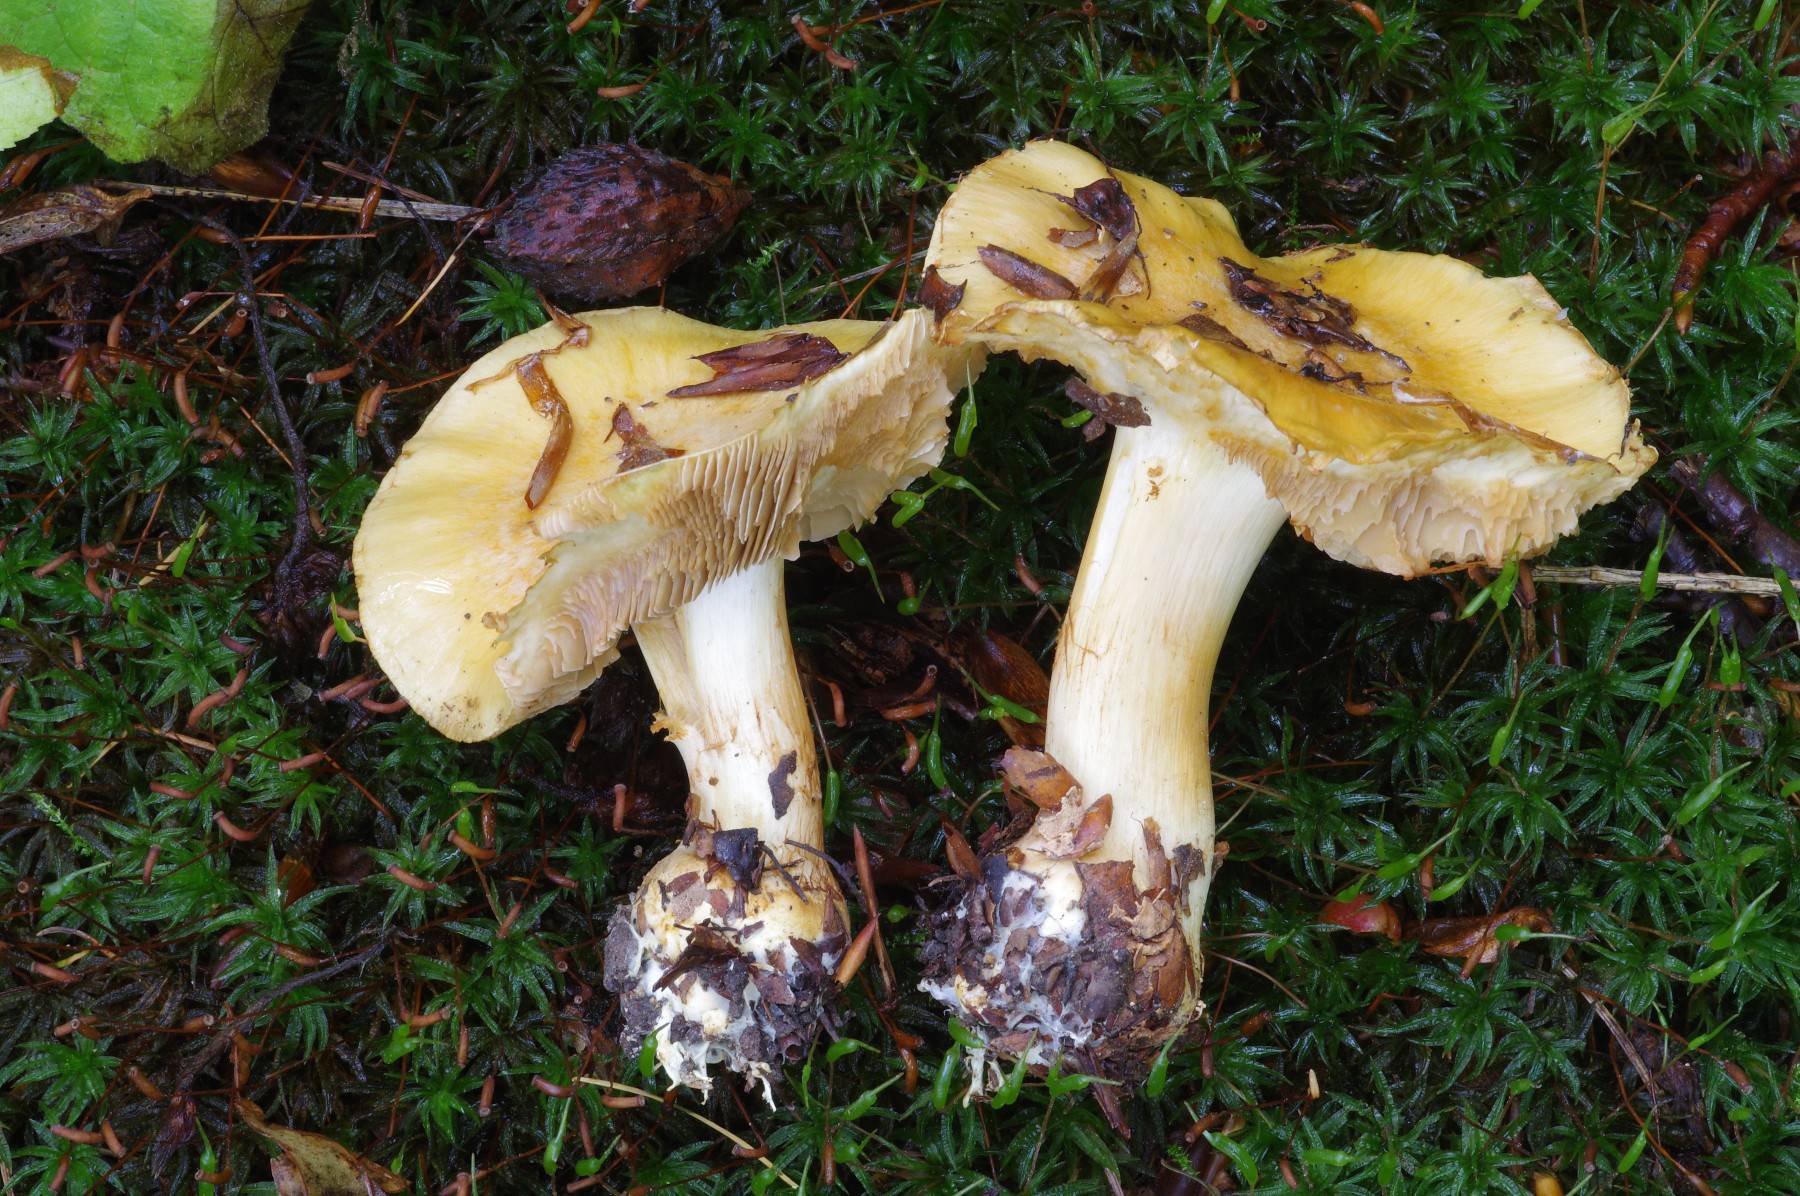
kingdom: Fungi
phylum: Basidiomycota
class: Agaricomycetes
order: Agaricales
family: Cortinariaceae
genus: Phlegmacium
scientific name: Phlegmacium cruentipellis
